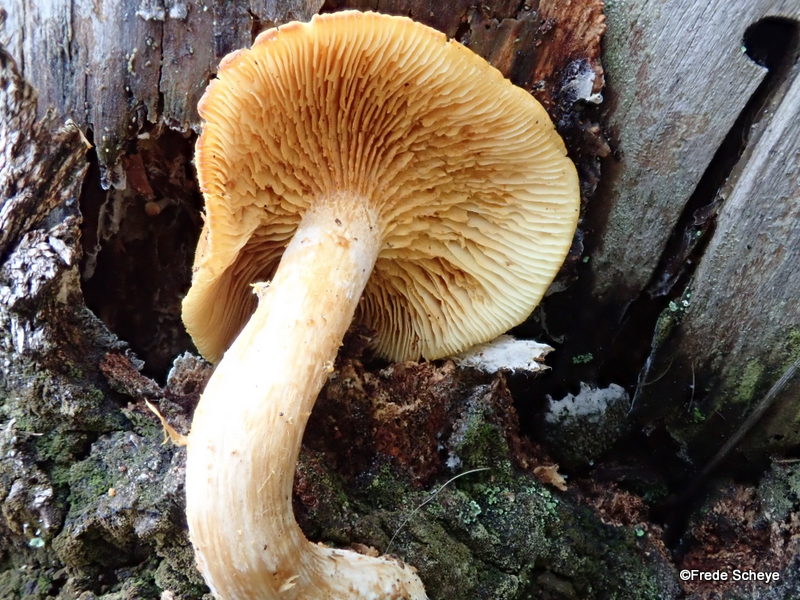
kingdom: Fungi
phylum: Basidiomycota
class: Agaricomycetes
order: Agaricales
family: Hymenogastraceae
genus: Gymnopilus
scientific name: Gymnopilus penetrans
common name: plettet flammehat
